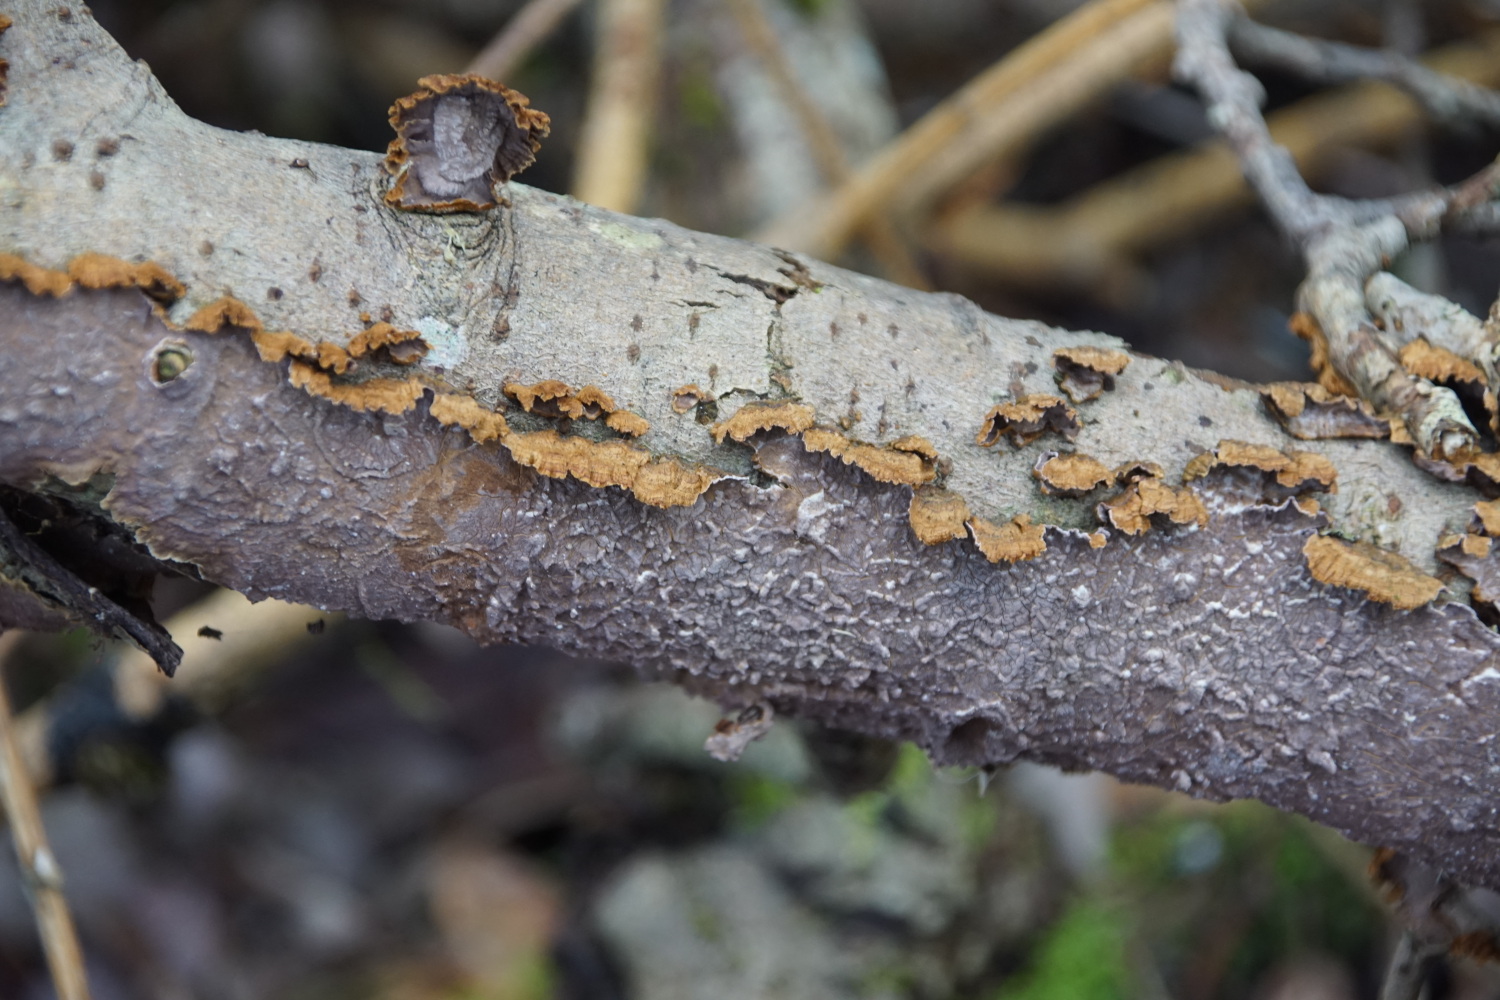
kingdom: Fungi
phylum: Basidiomycota
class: Agaricomycetes
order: Hymenochaetales
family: Hymenochaetaceae
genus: Hydnoporia
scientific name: Hydnoporia tabacina
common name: tobaksbrun ruslædersvamp
